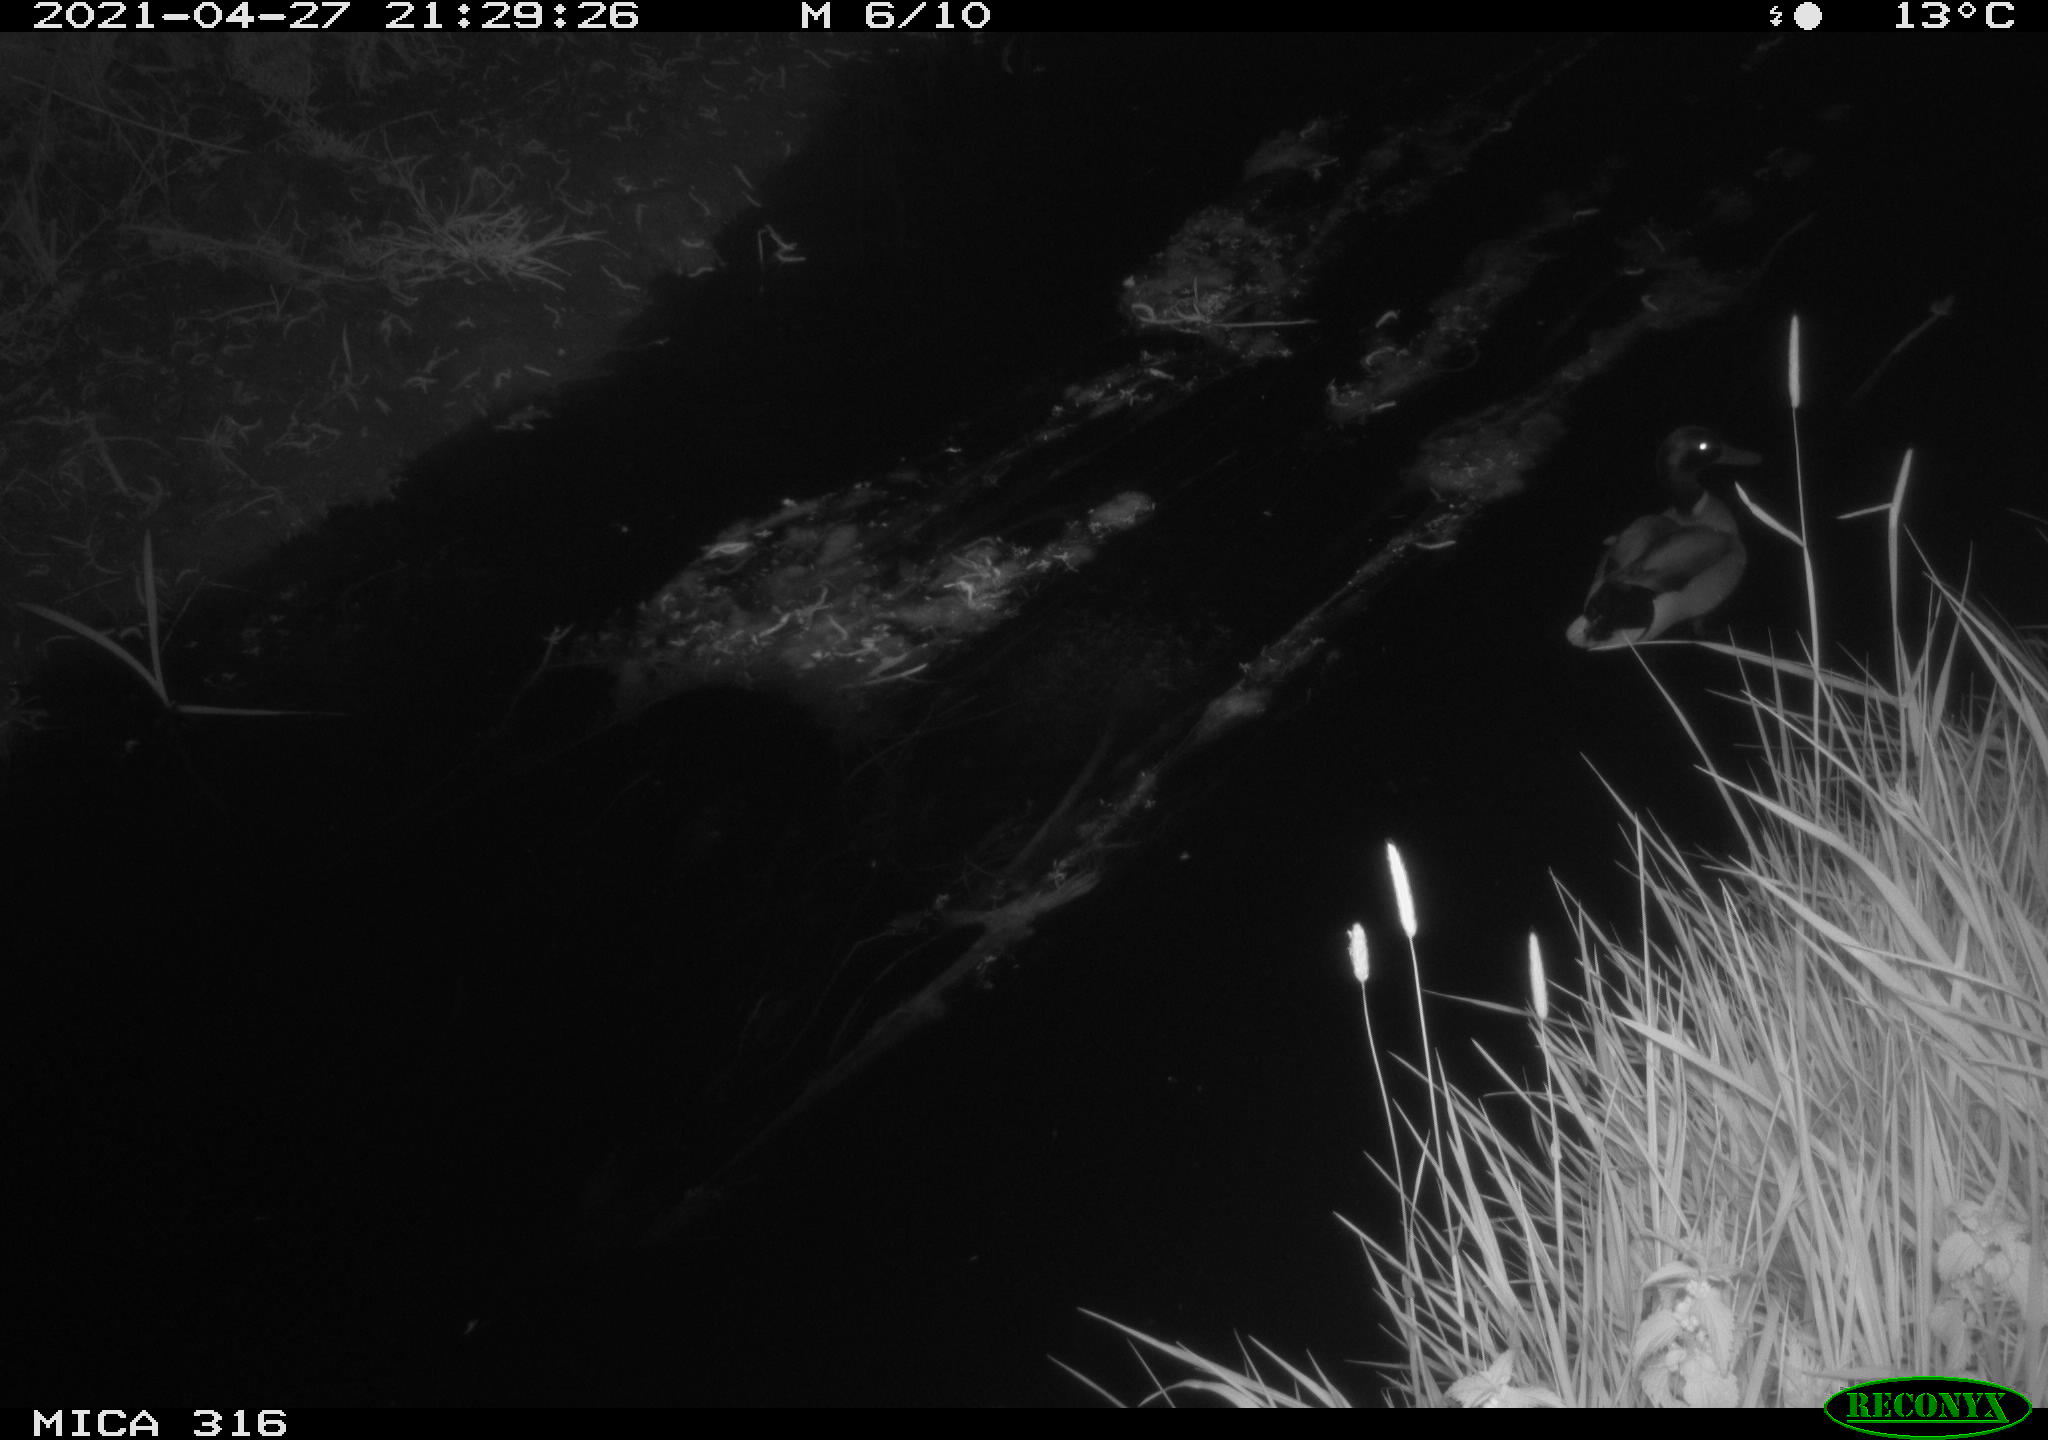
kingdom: Animalia
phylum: Chordata
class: Aves
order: Anseriformes
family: Anatidae
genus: Anas
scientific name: Anas platyrhynchos
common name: Mallard
